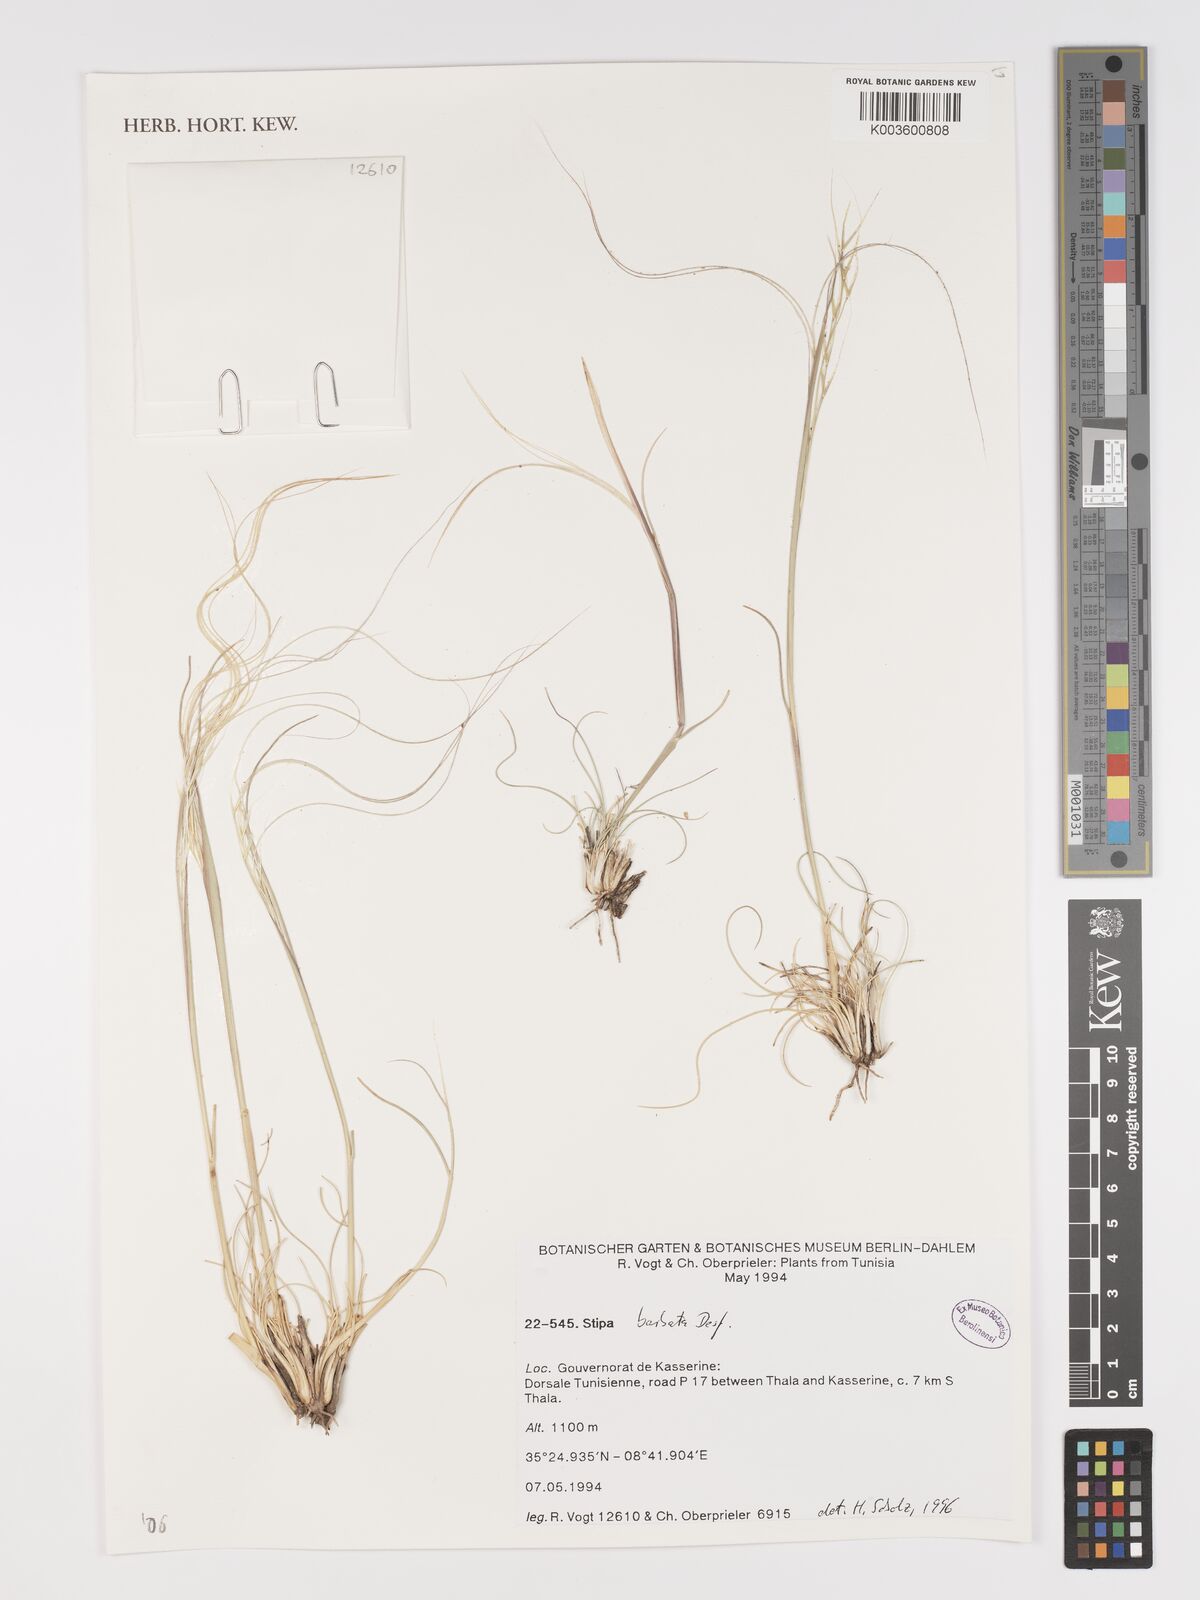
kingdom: Plantae
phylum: Tracheophyta
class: Liliopsida
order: Poales
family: Poaceae
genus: Stipa
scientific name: Stipa barbata
